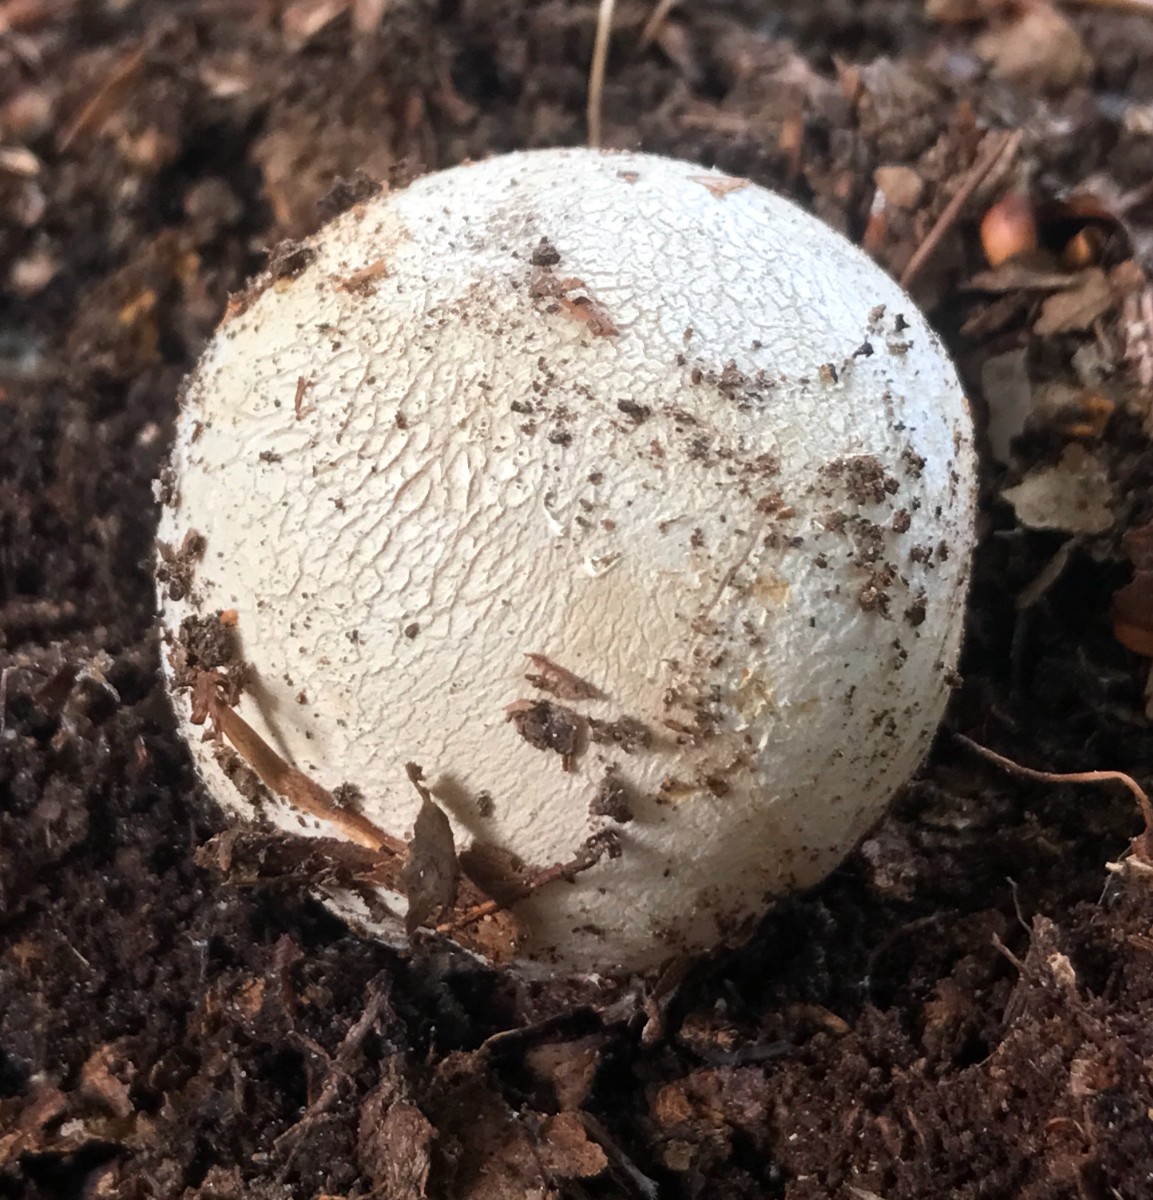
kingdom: Fungi
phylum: Basidiomycota
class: Agaricomycetes
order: Phallales
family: Phallaceae
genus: Phallus
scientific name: Phallus impudicus
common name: almindelig stinksvamp
